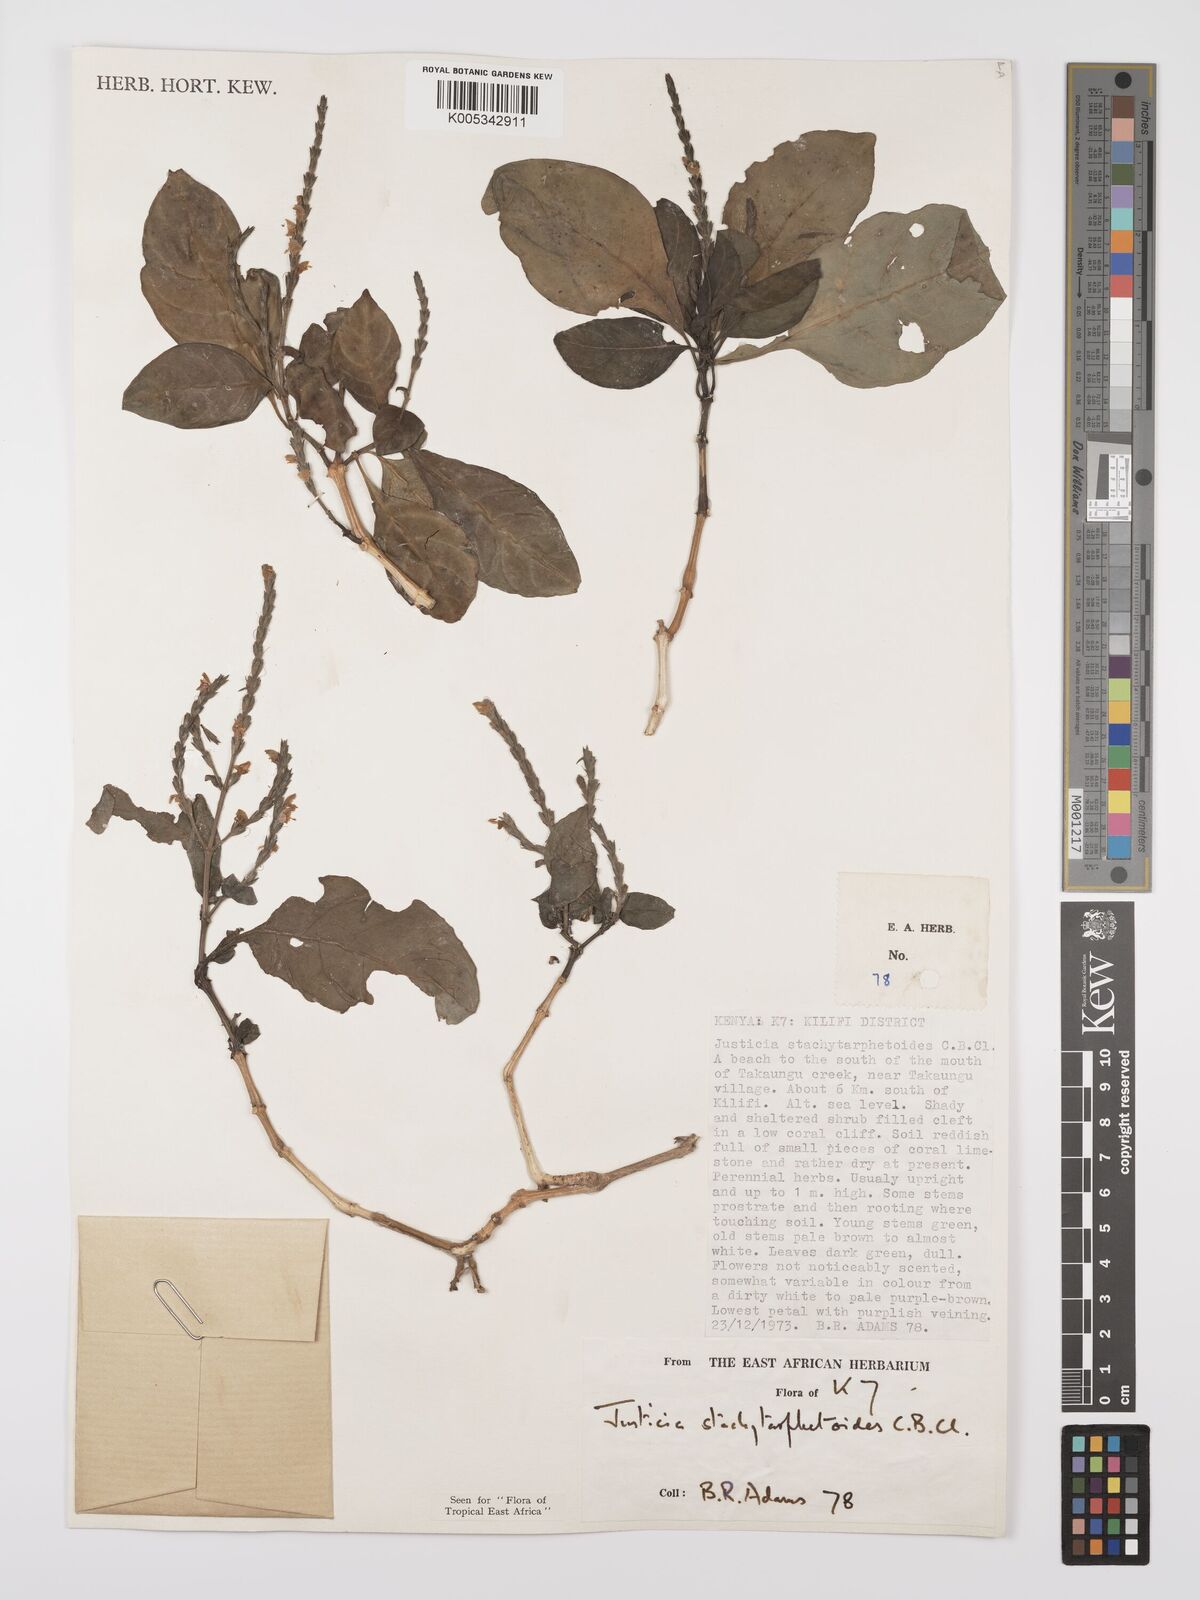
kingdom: Plantae
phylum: Tracheophyta
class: Magnoliopsida
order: Lamiales
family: Acanthaceae
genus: Justicia
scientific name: Justicia stachytarphetoides
